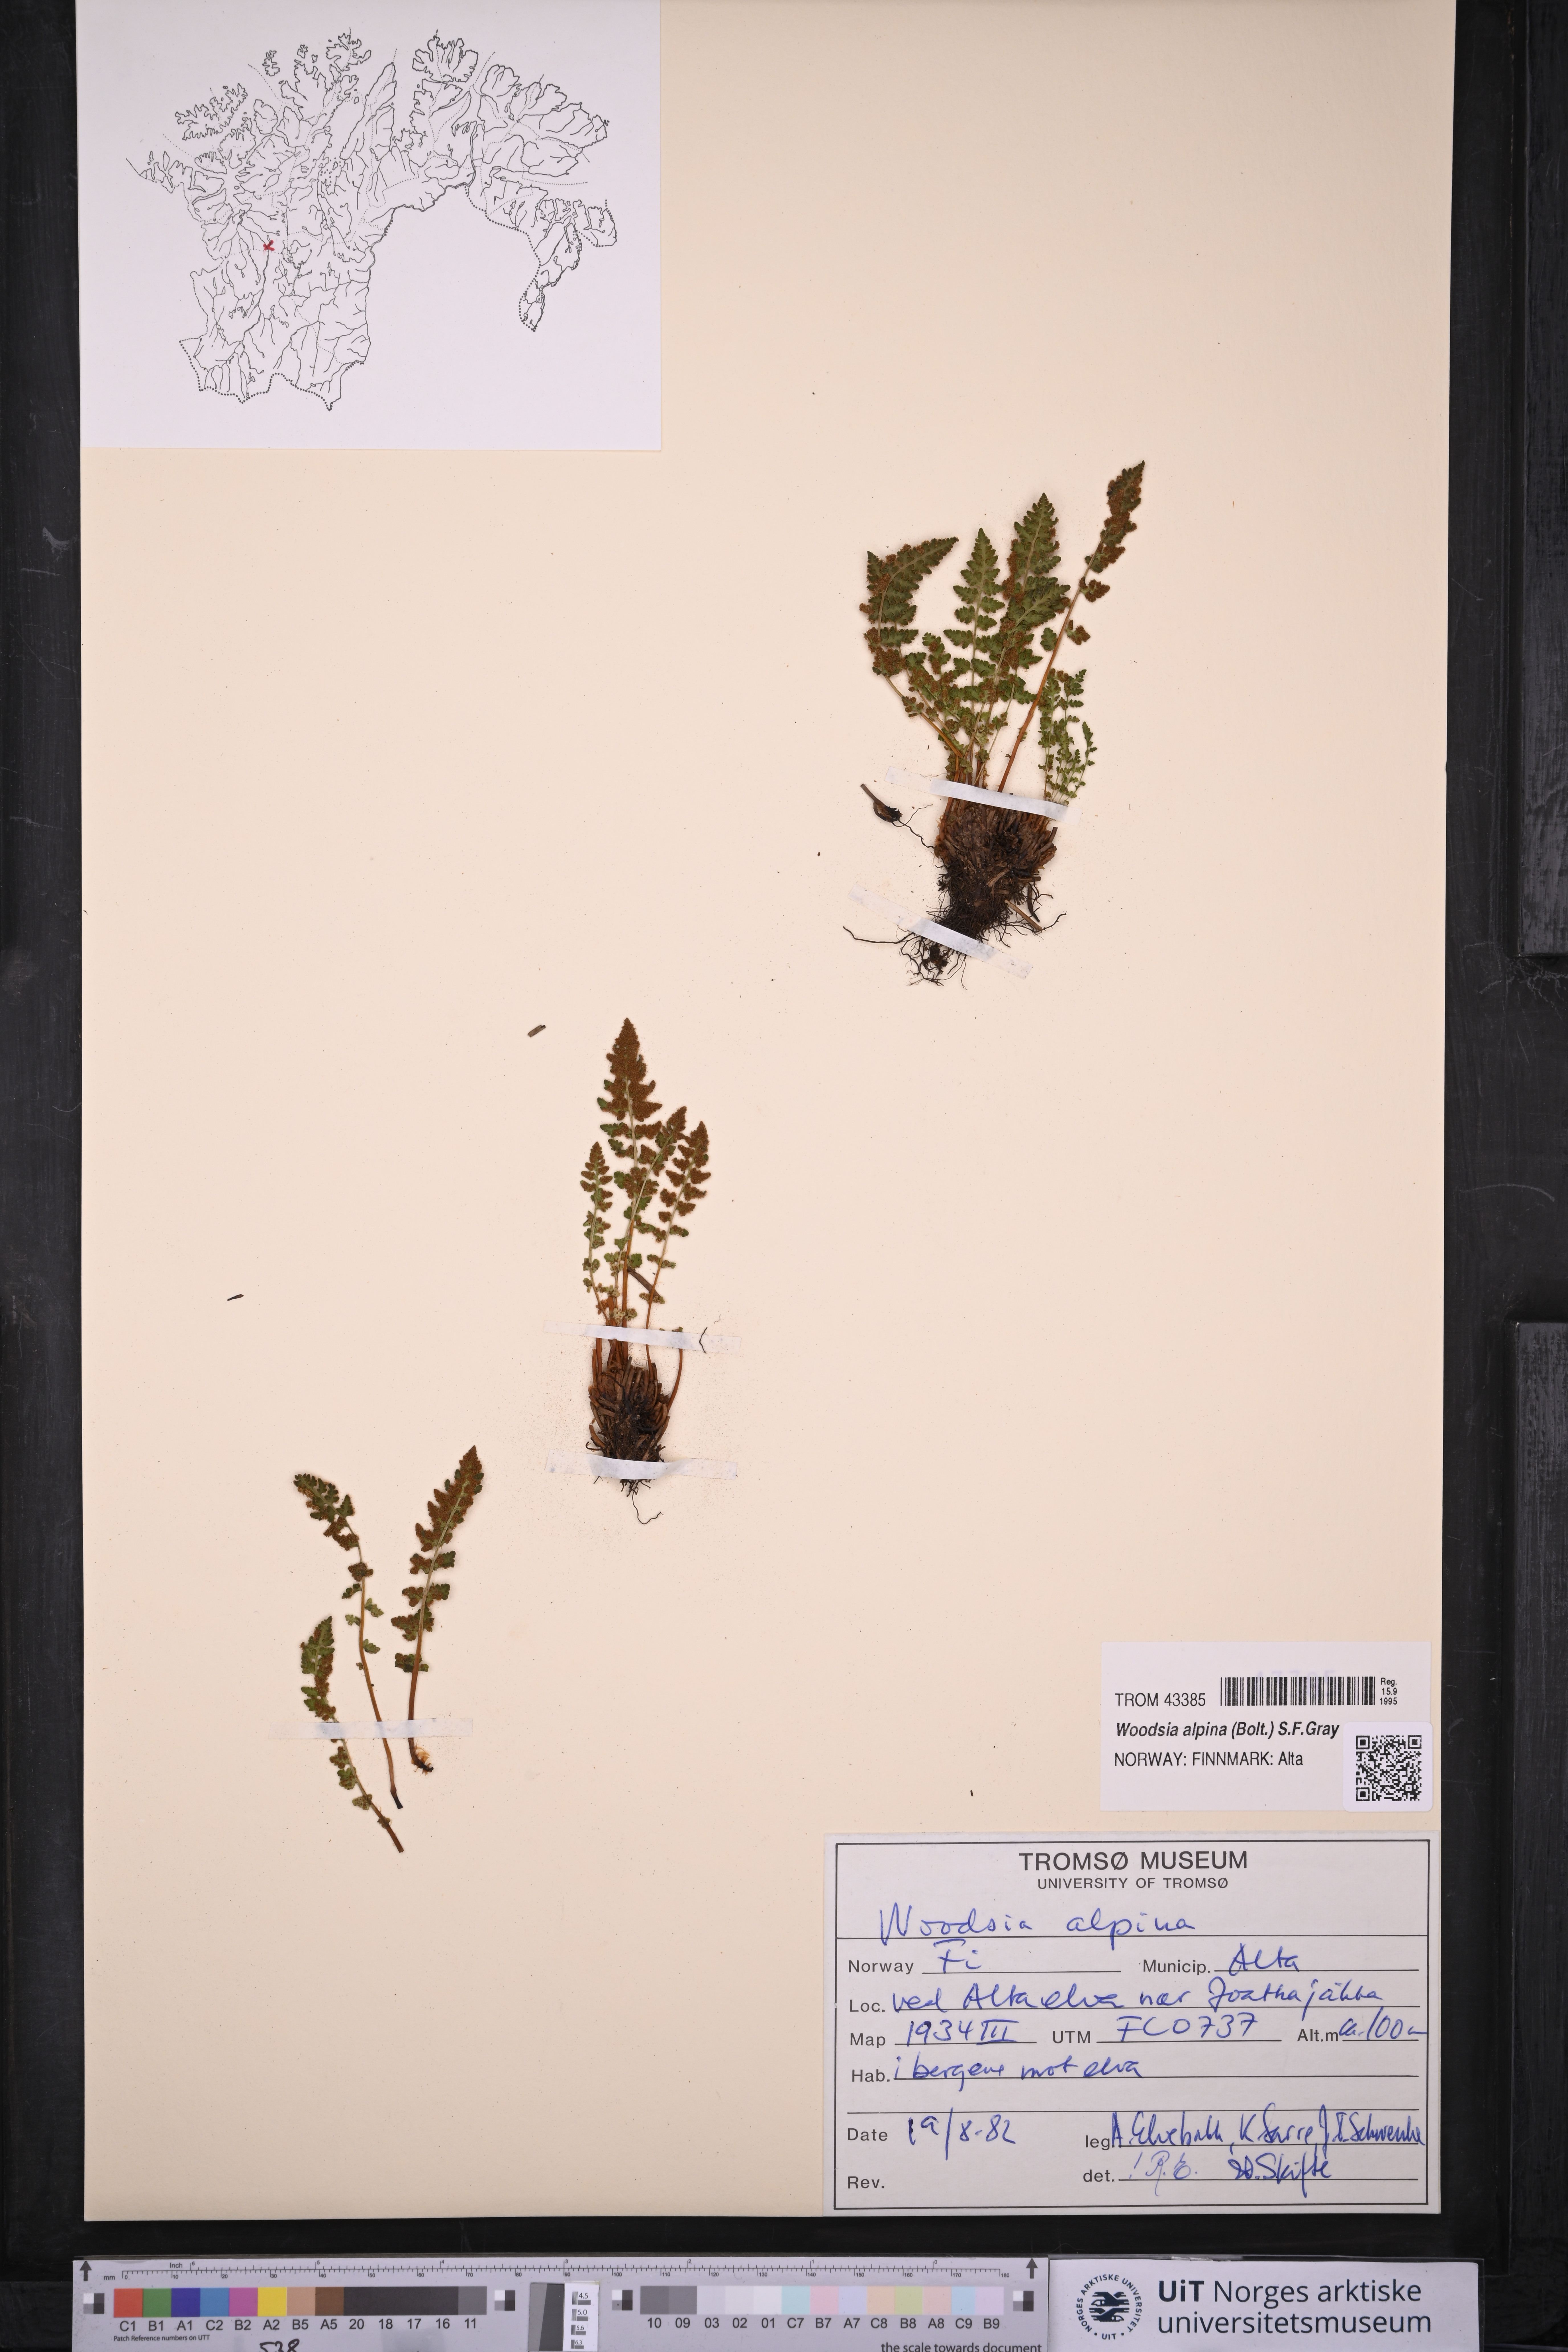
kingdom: Plantae
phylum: Tracheophyta
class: Polypodiopsida
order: Polypodiales
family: Woodsiaceae
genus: Woodsia
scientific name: Woodsia alpina
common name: Alpine woodsia
